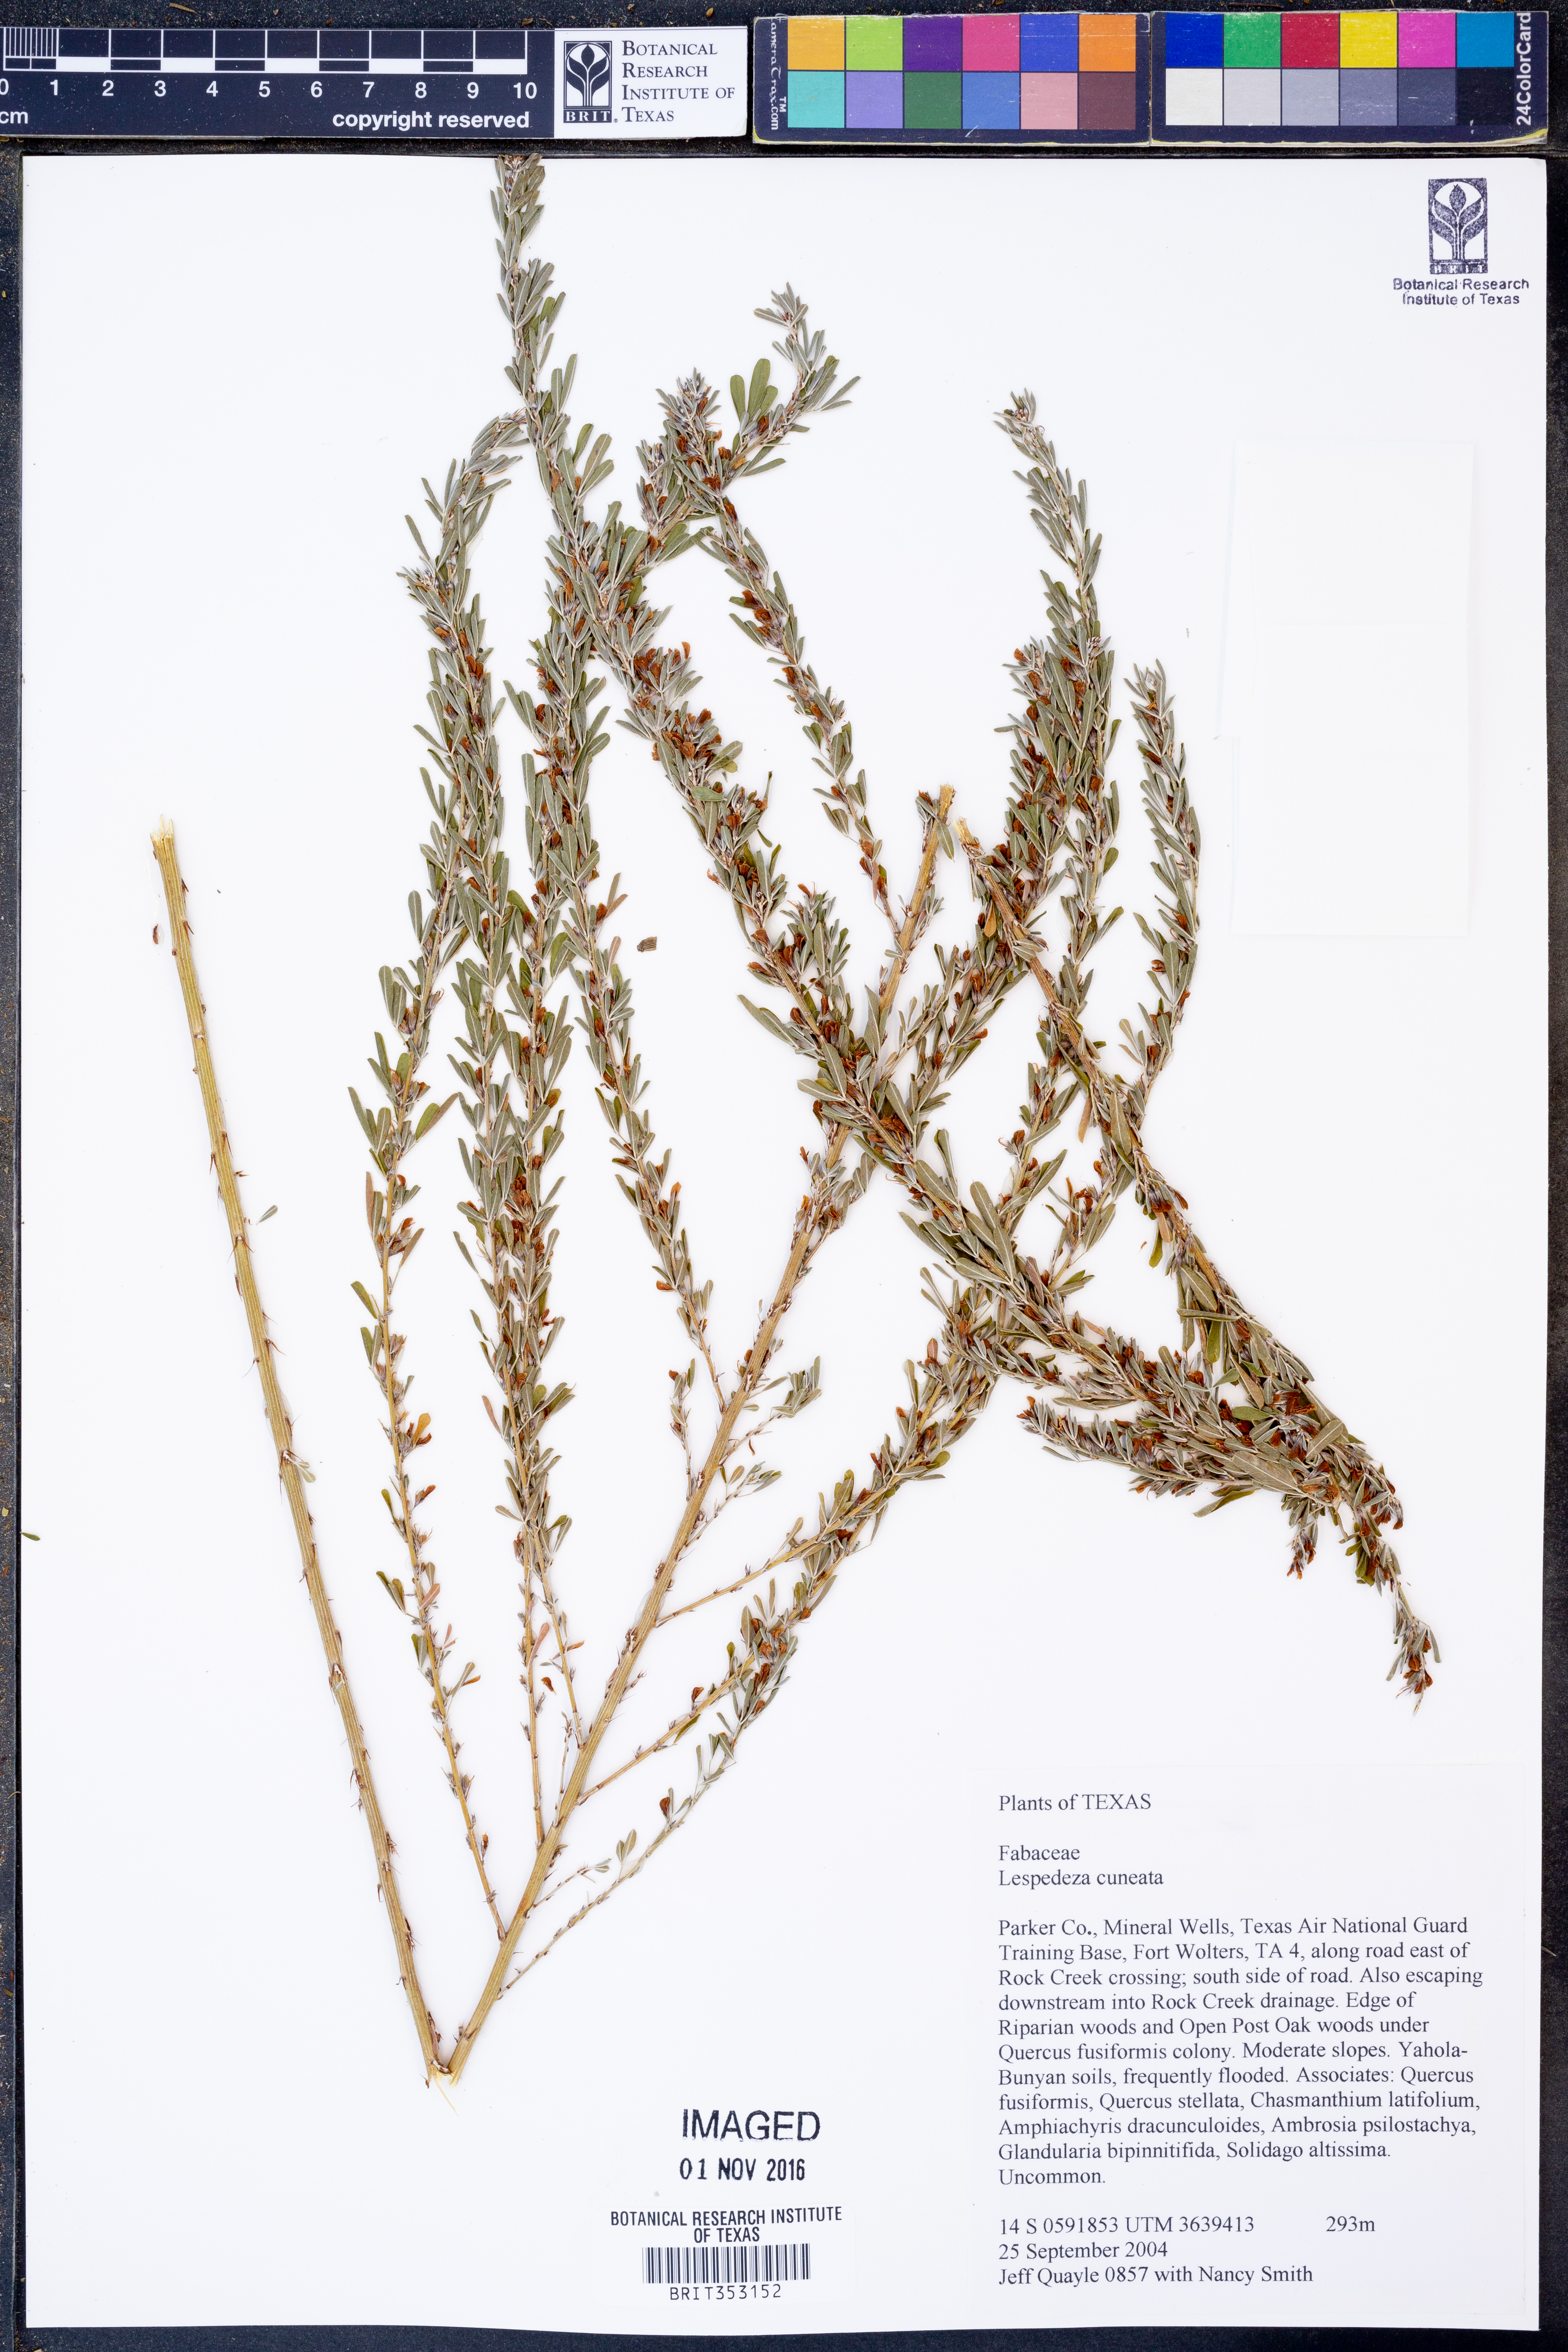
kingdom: Plantae
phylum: Tracheophyta
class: Magnoliopsida
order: Fabales
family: Fabaceae
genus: Lespedeza
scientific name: Lespedeza cuneata
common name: Chinese bush-clover
